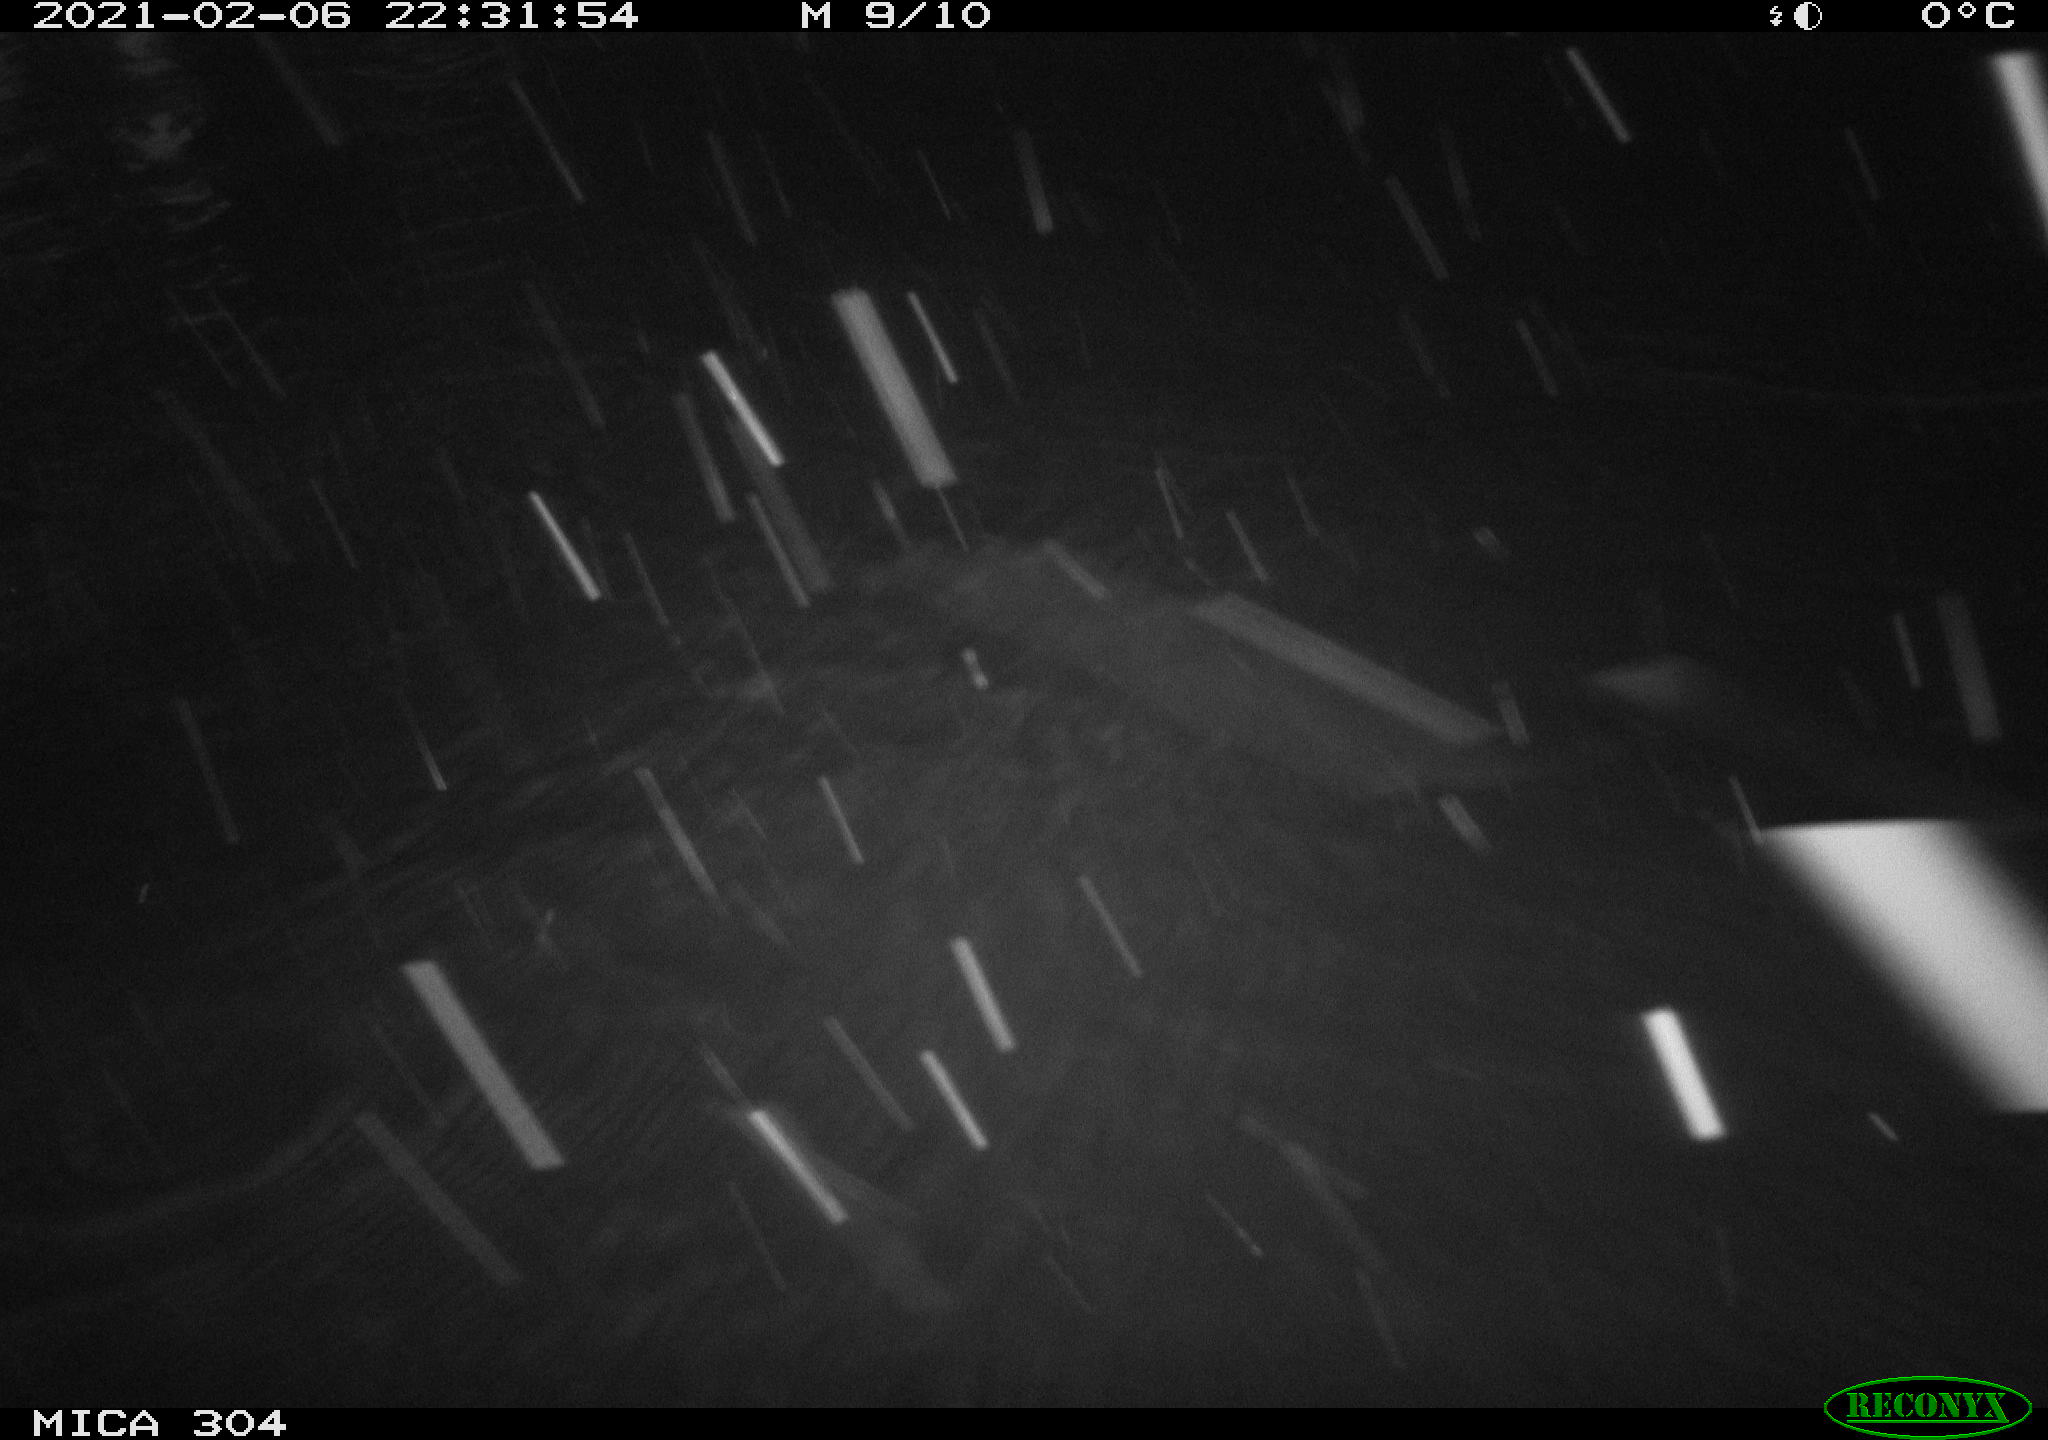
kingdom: Animalia
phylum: Chordata
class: Mammalia
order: Rodentia
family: Muridae
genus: Rattus
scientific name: Rattus norvegicus
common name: Brown rat
